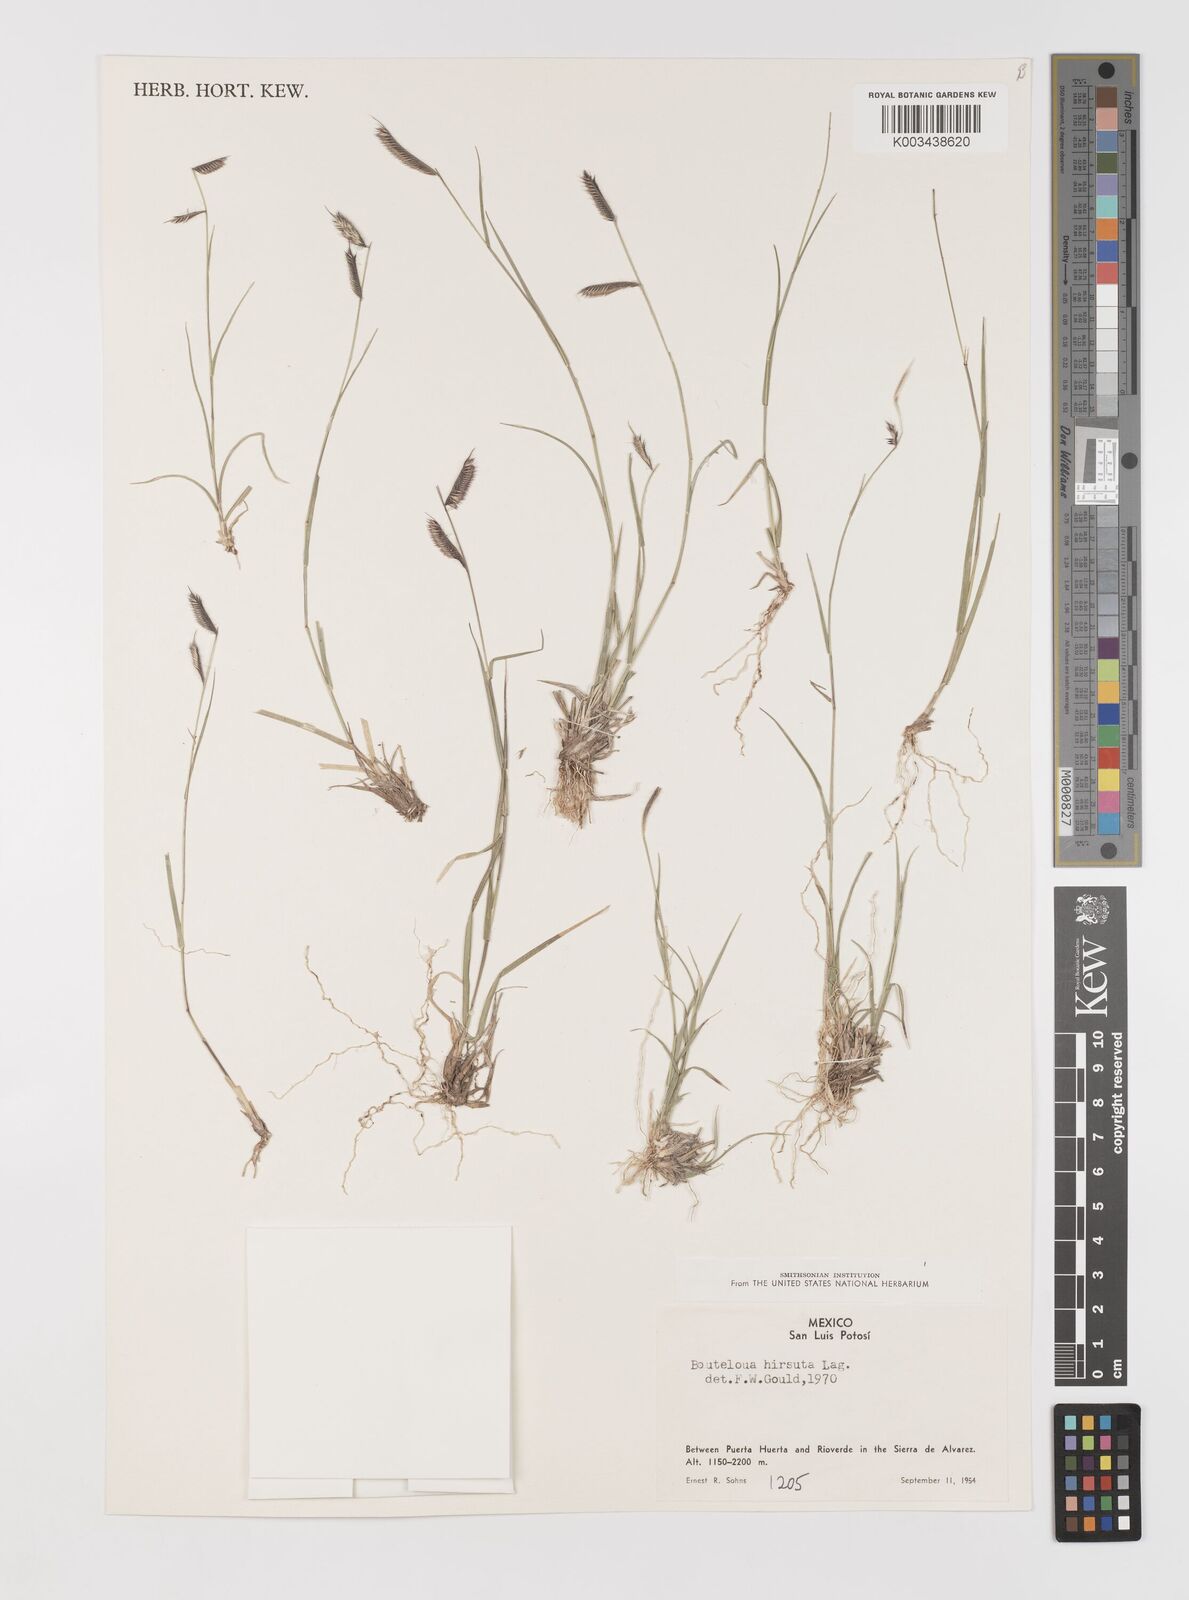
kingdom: Plantae
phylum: Tracheophyta
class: Liliopsida
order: Poales
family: Poaceae
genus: Bouteloua
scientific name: Bouteloua hirsuta
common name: Hairy grama
